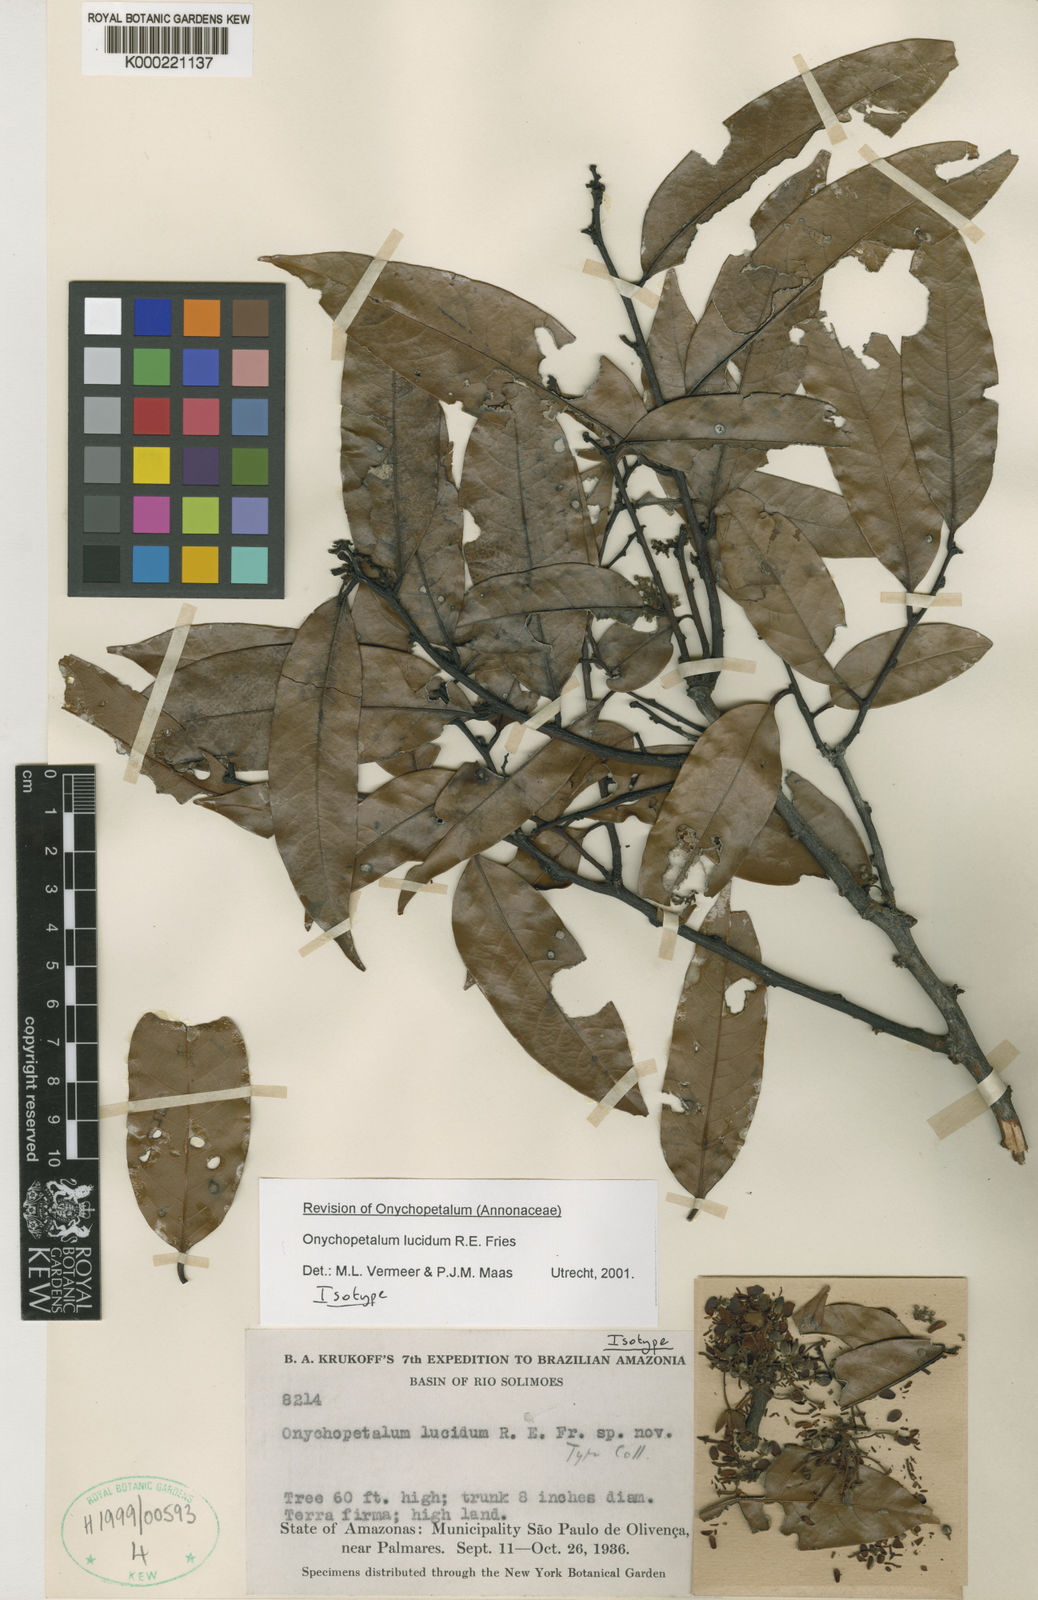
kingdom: Plantae
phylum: Tracheophyta
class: Magnoliopsida
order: Magnoliales
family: Annonaceae
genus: Onychopetalum
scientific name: Onychopetalum periquino
